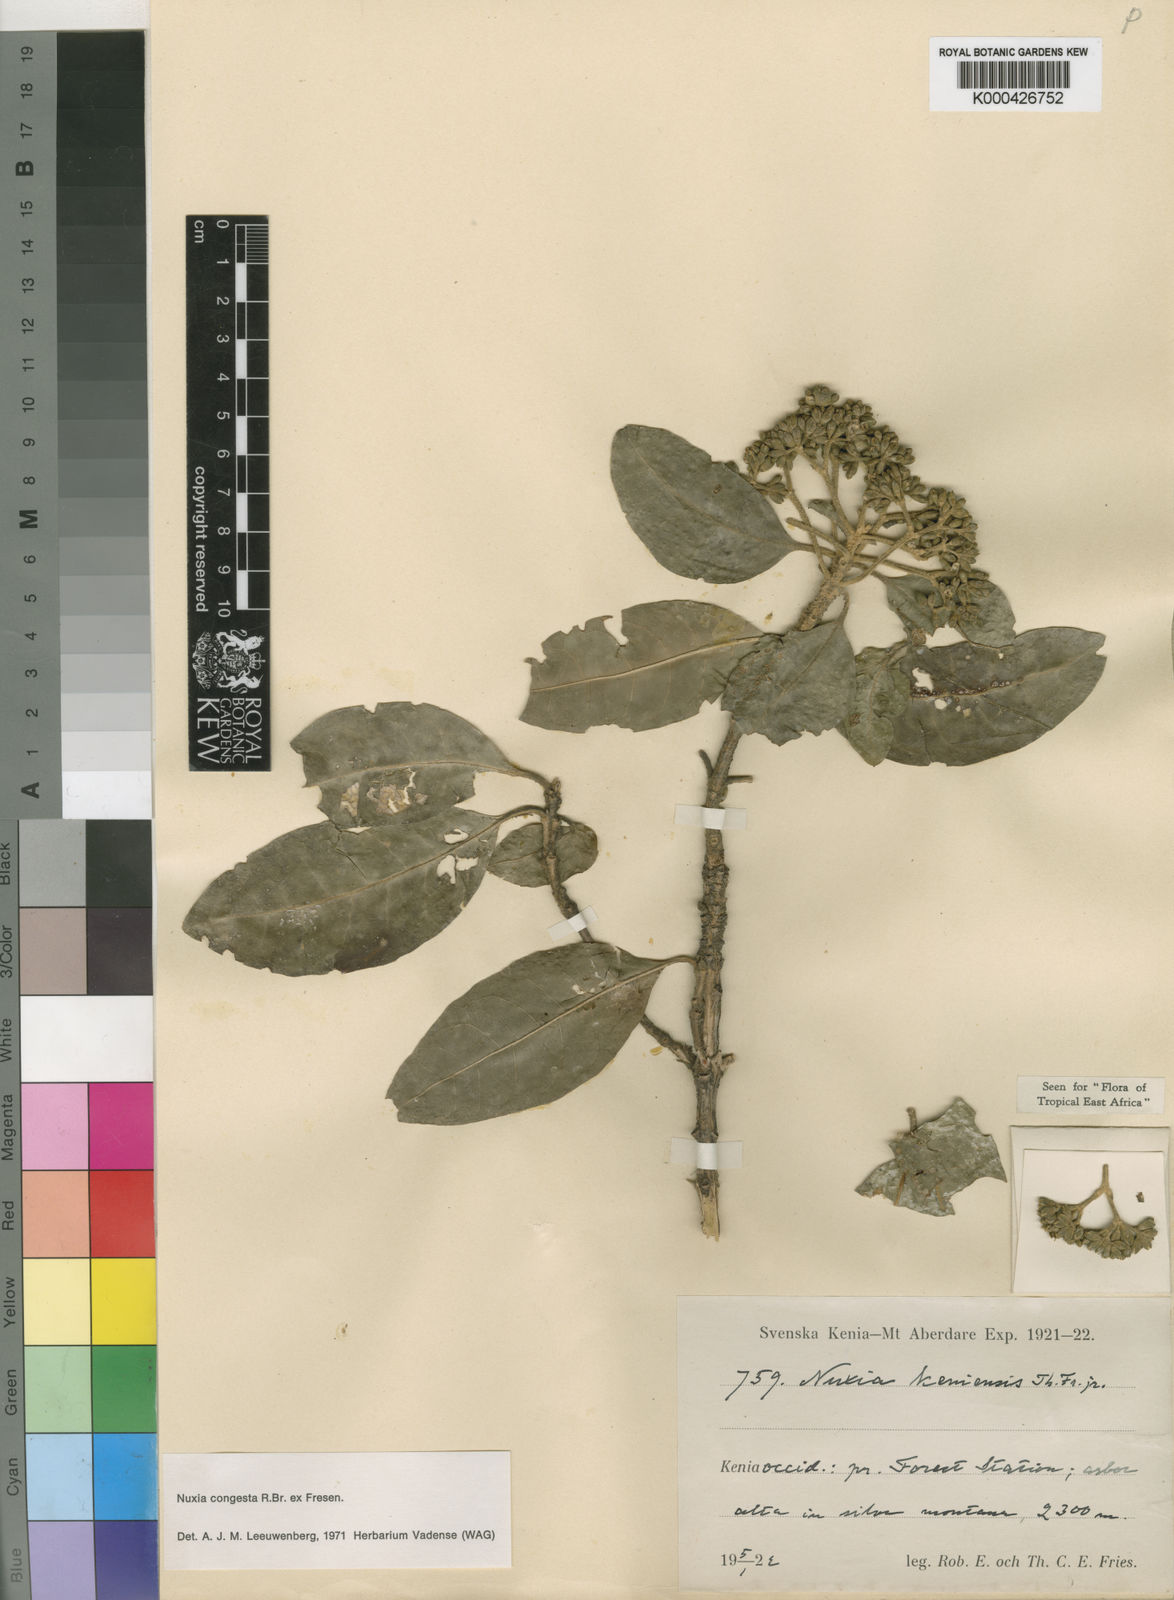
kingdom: Plantae
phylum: Tracheophyta
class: Magnoliopsida
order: Lamiales
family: Stilbaceae
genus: Nuxia
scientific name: Nuxia congesta
